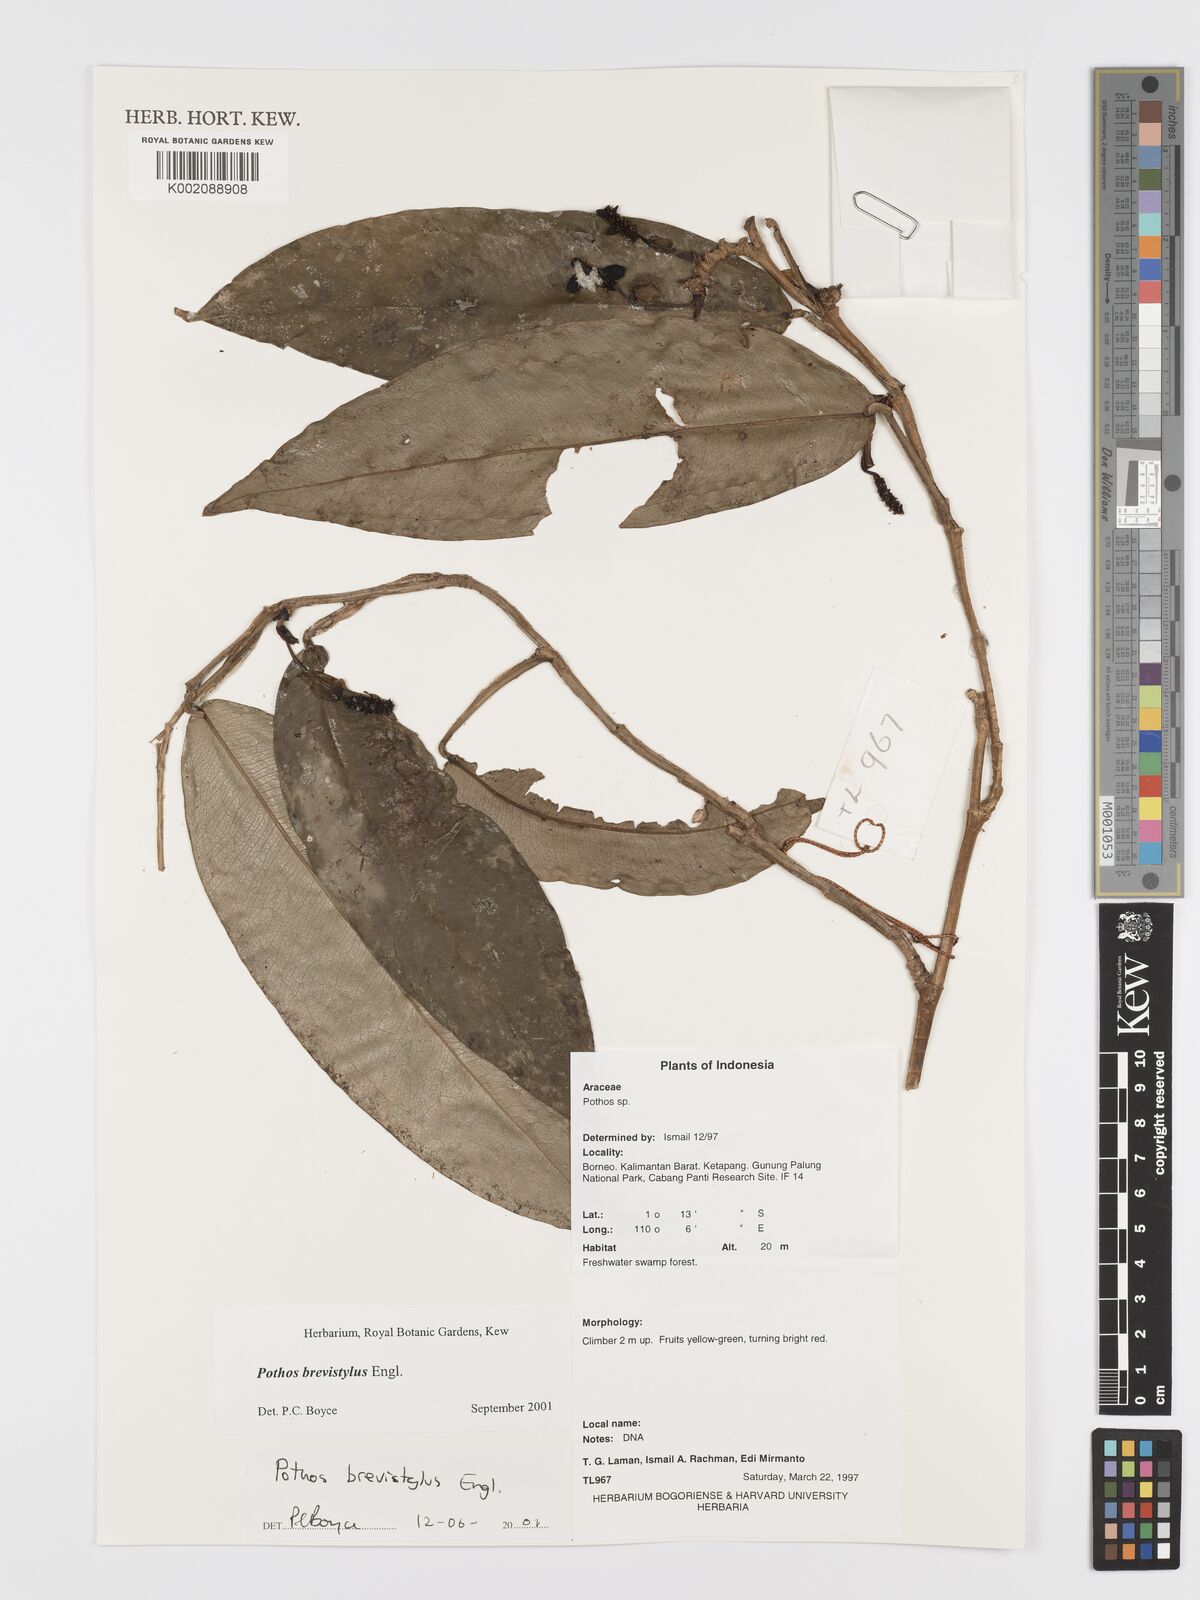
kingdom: Plantae
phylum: Tracheophyta
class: Liliopsida
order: Alismatales
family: Araceae
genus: Pothos
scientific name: Pothos brevistylus
